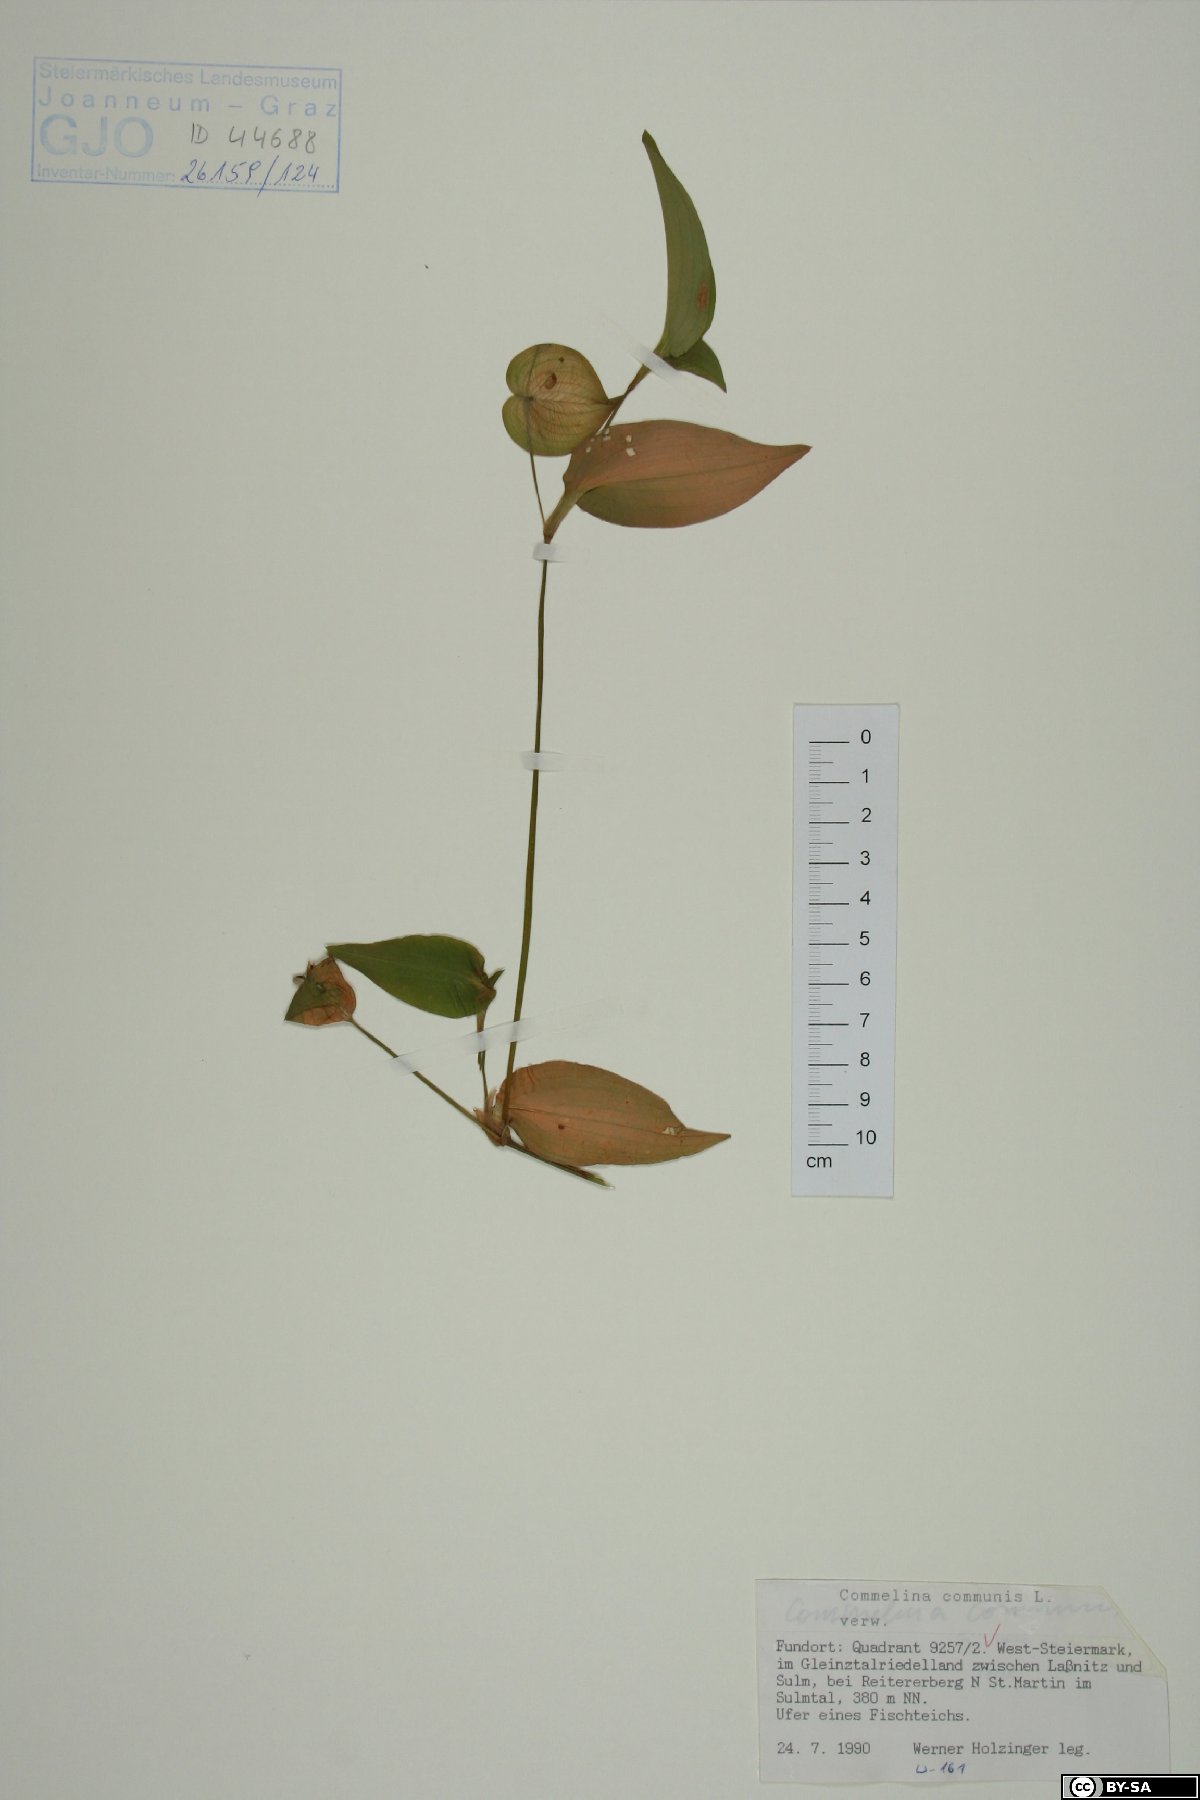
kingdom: Plantae
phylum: Tracheophyta
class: Liliopsida
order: Commelinales
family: Commelinaceae
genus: Commelina
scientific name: Commelina communis
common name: Asiatic dayflower
